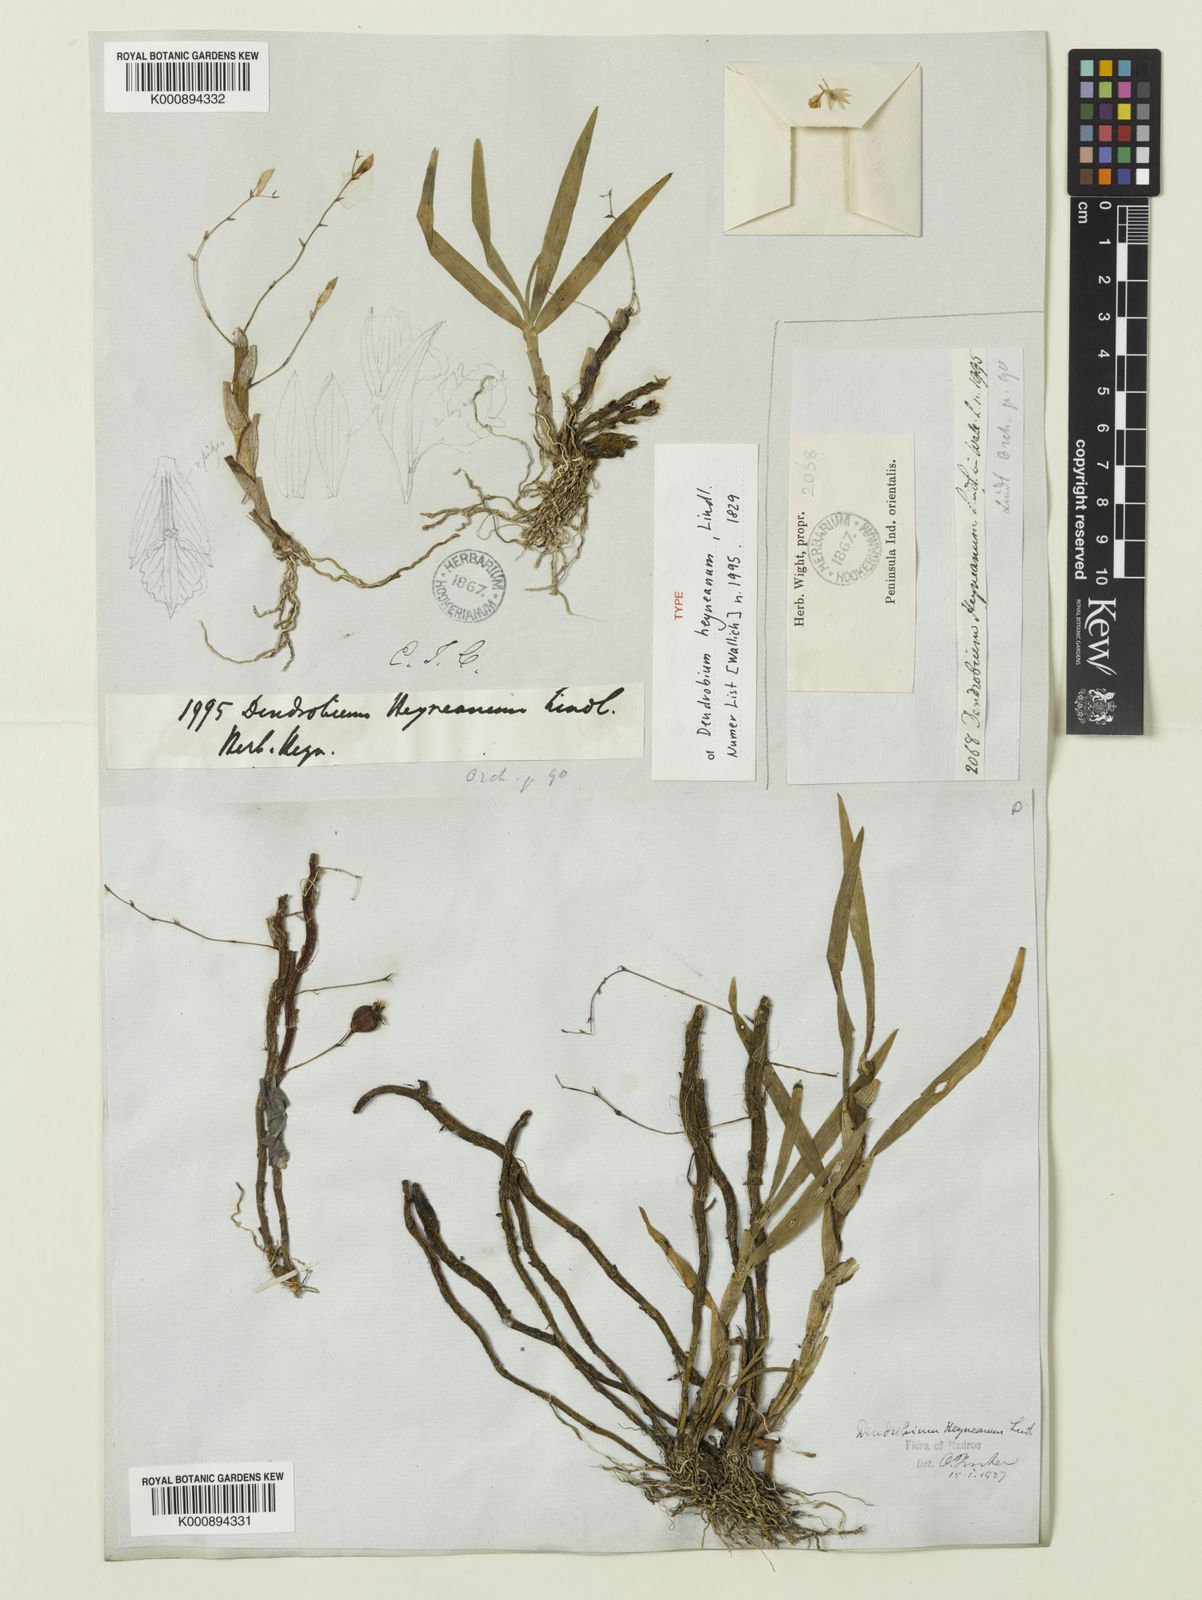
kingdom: Plantae
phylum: Tracheophyta
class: Liliopsida
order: Asparagales
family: Orchidaceae
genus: Dendrobium
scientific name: Dendrobium heyneanum
